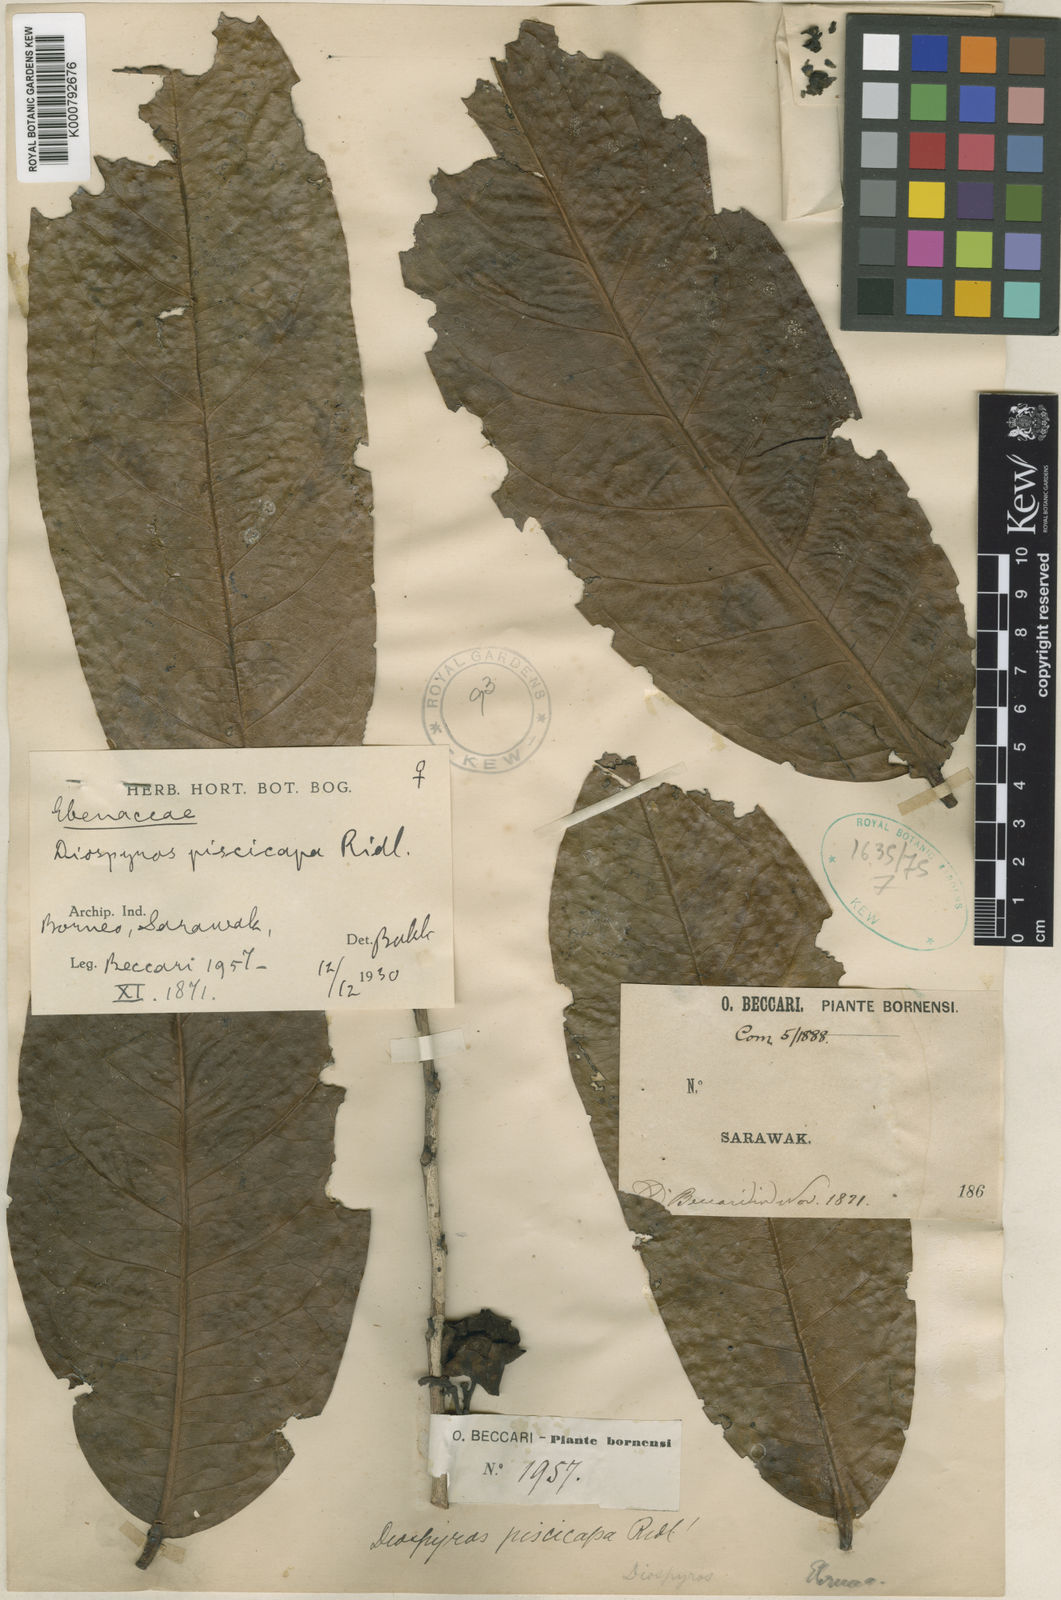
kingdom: Plantae
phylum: Tracheophyta
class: Magnoliopsida
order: Ericales
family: Ebenaceae
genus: Diospyros
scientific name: Diospyros piscicapa
